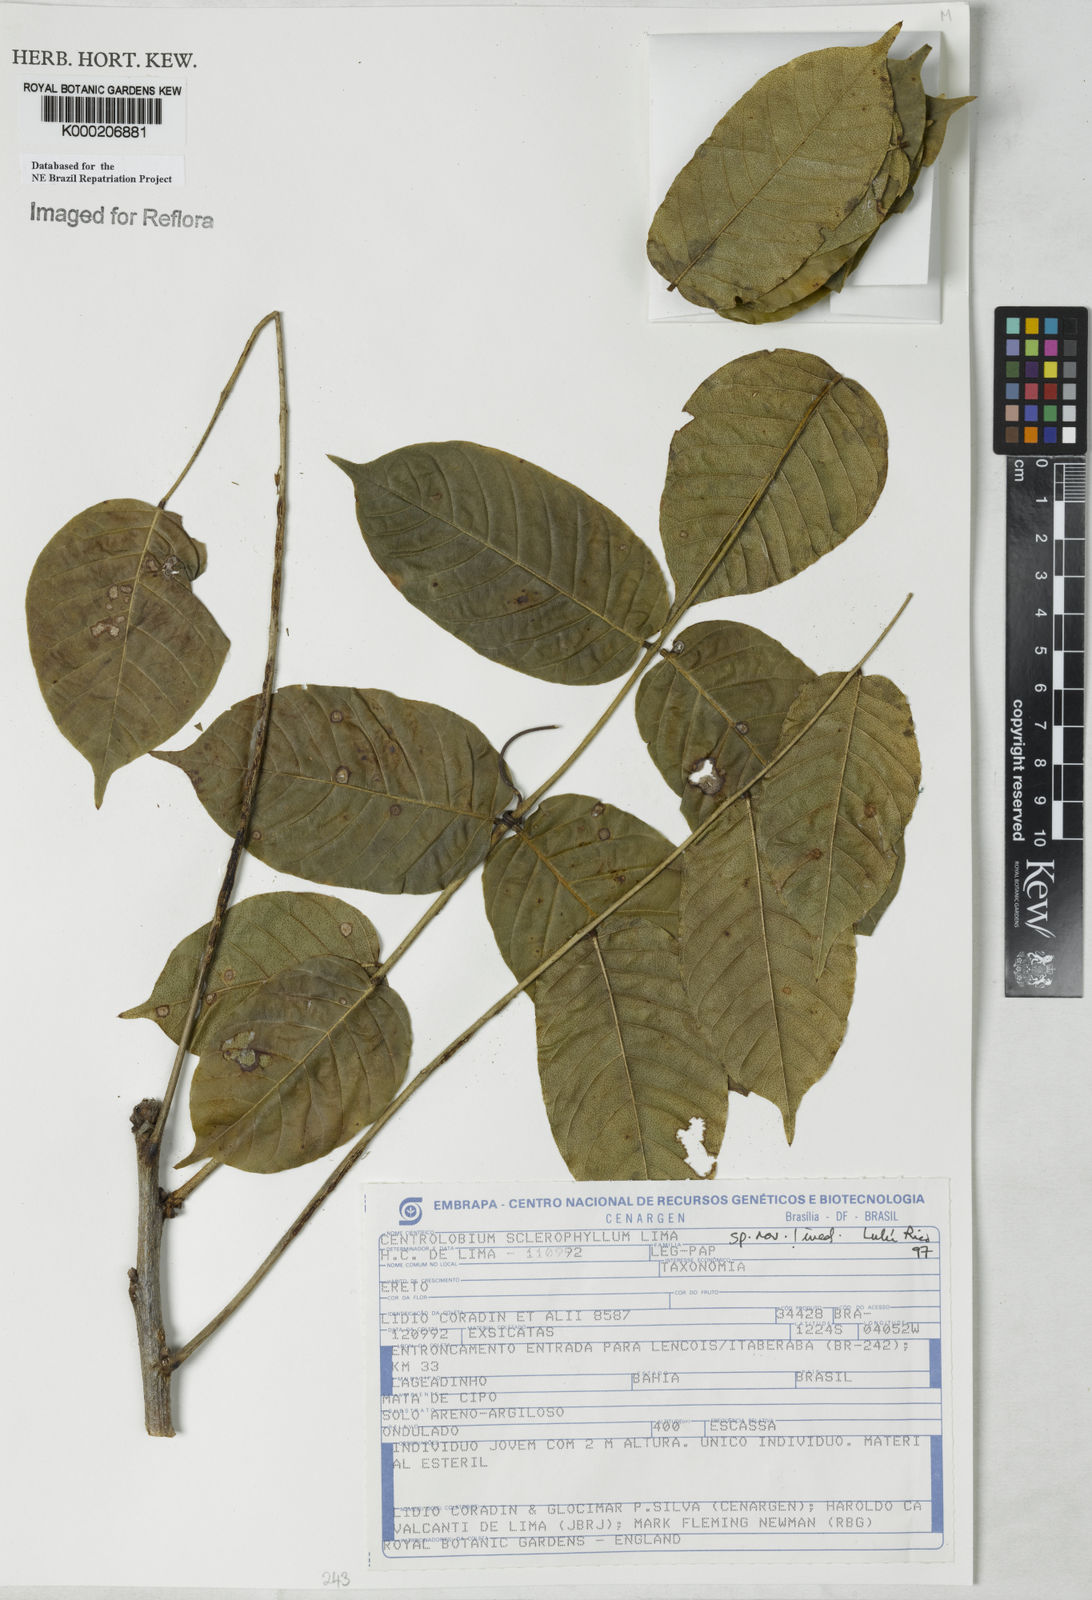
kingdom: Plantae
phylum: Tracheophyta
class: Magnoliopsida
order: Fabales
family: Fabaceae
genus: Centrolobium
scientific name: Centrolobium sclerophyllum
